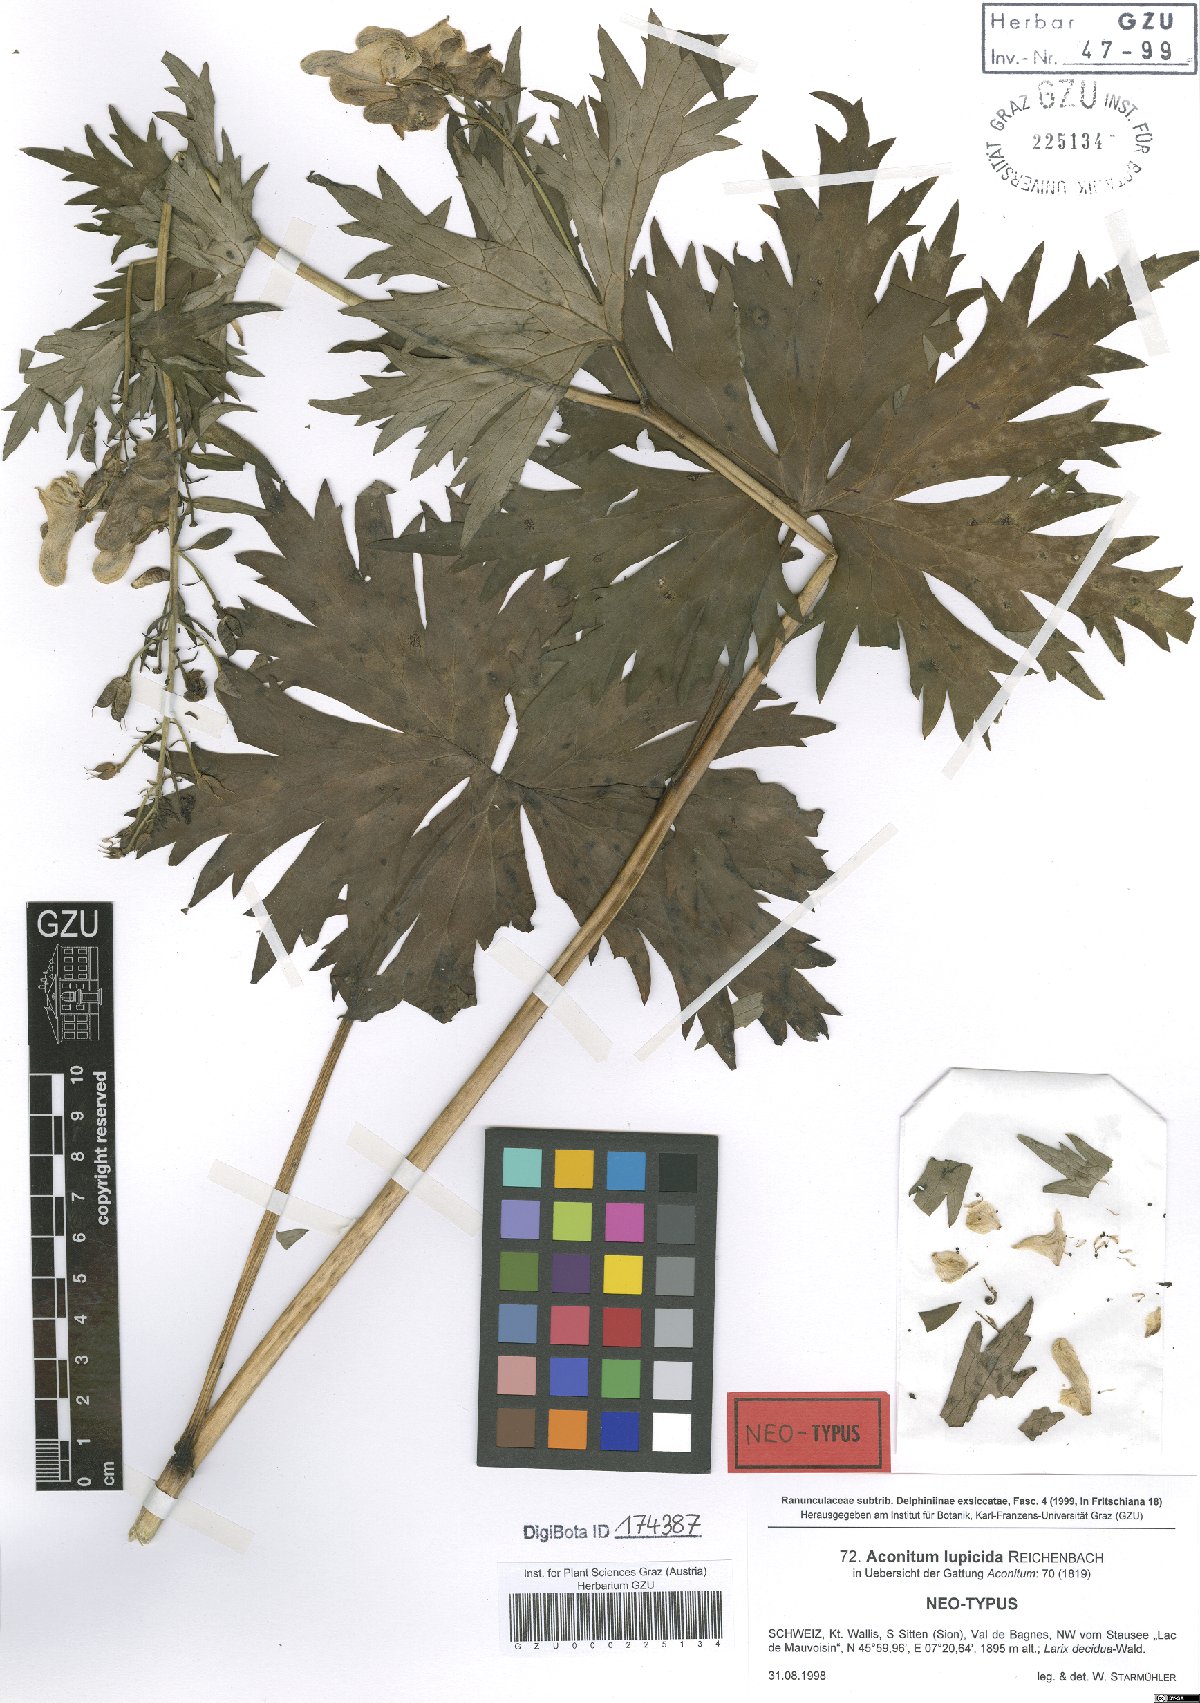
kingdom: Plantae
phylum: Tracheophyta
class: Magnoliopsida
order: Ranunculales
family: Ranunculaceae
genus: Aconitum
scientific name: Aconitum lycoctonum
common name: Wolf's-bane
